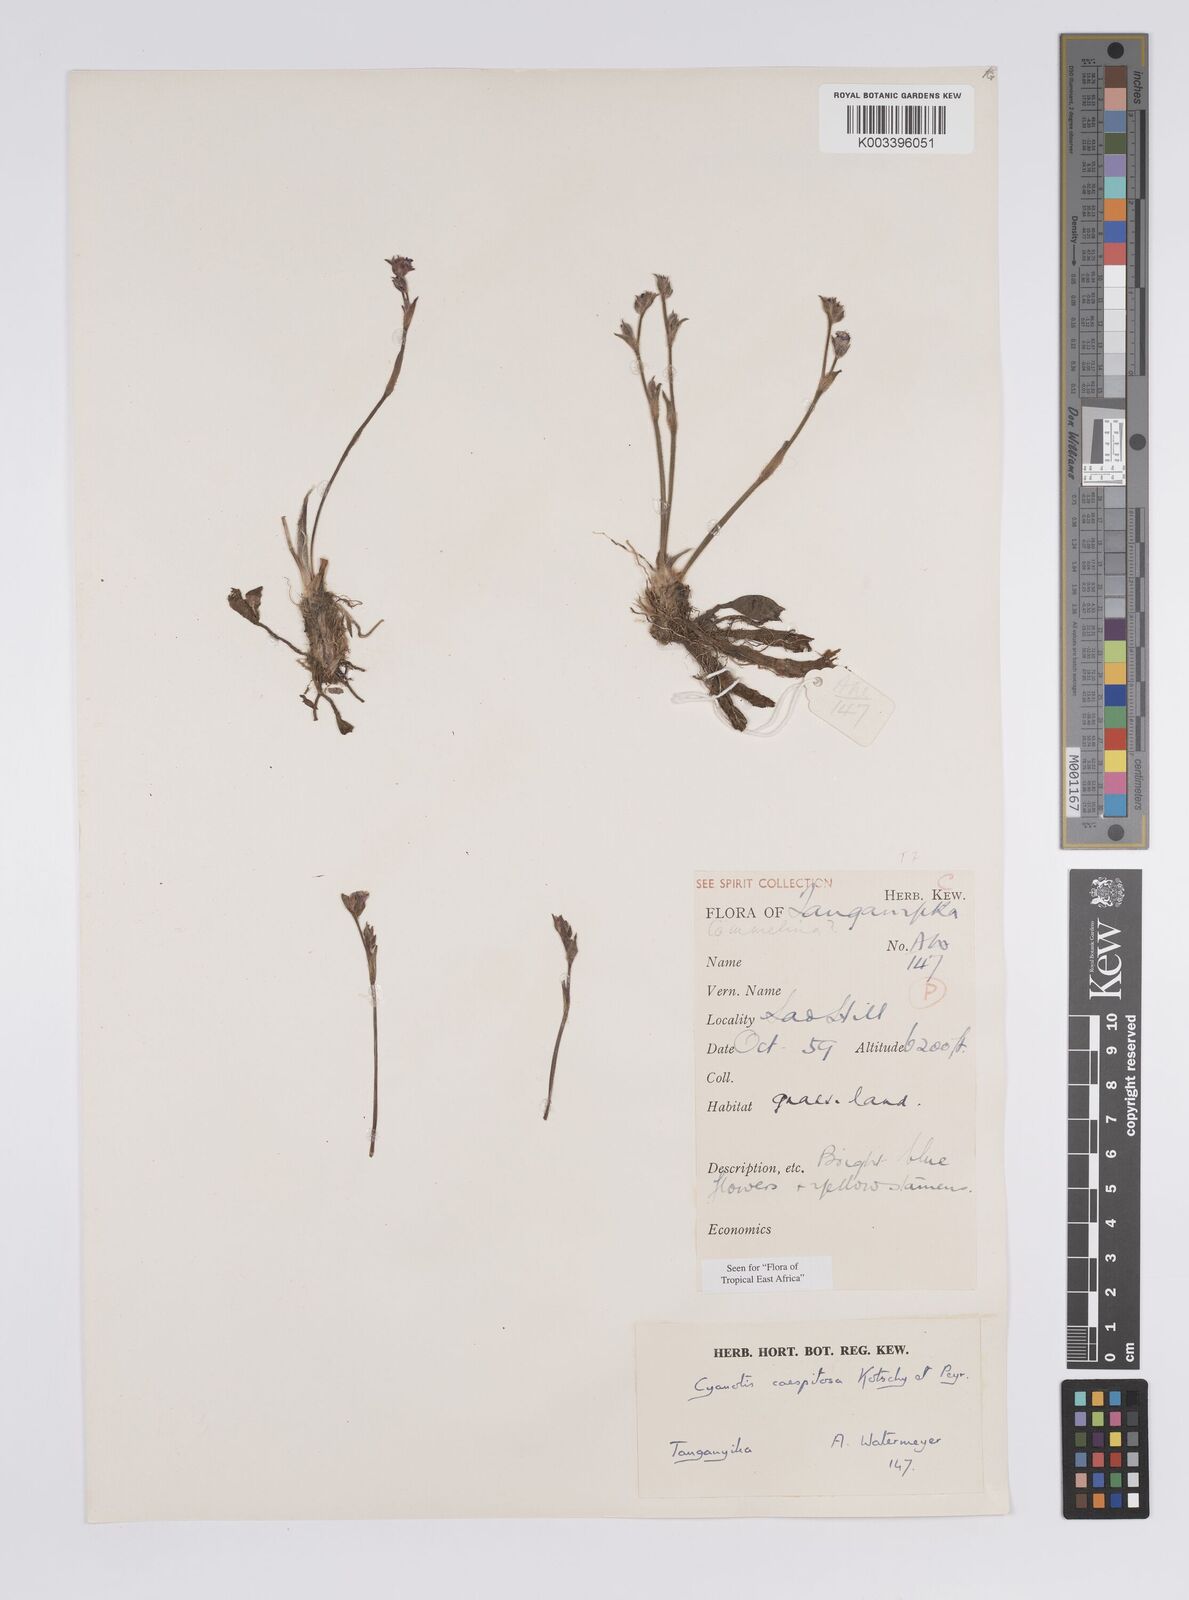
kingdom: Plantae
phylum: Tracheophyta
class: Liliopsida
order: Commelinales
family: Commelinaceae
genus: Cyanotis
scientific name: Cyanotis caespitosa
